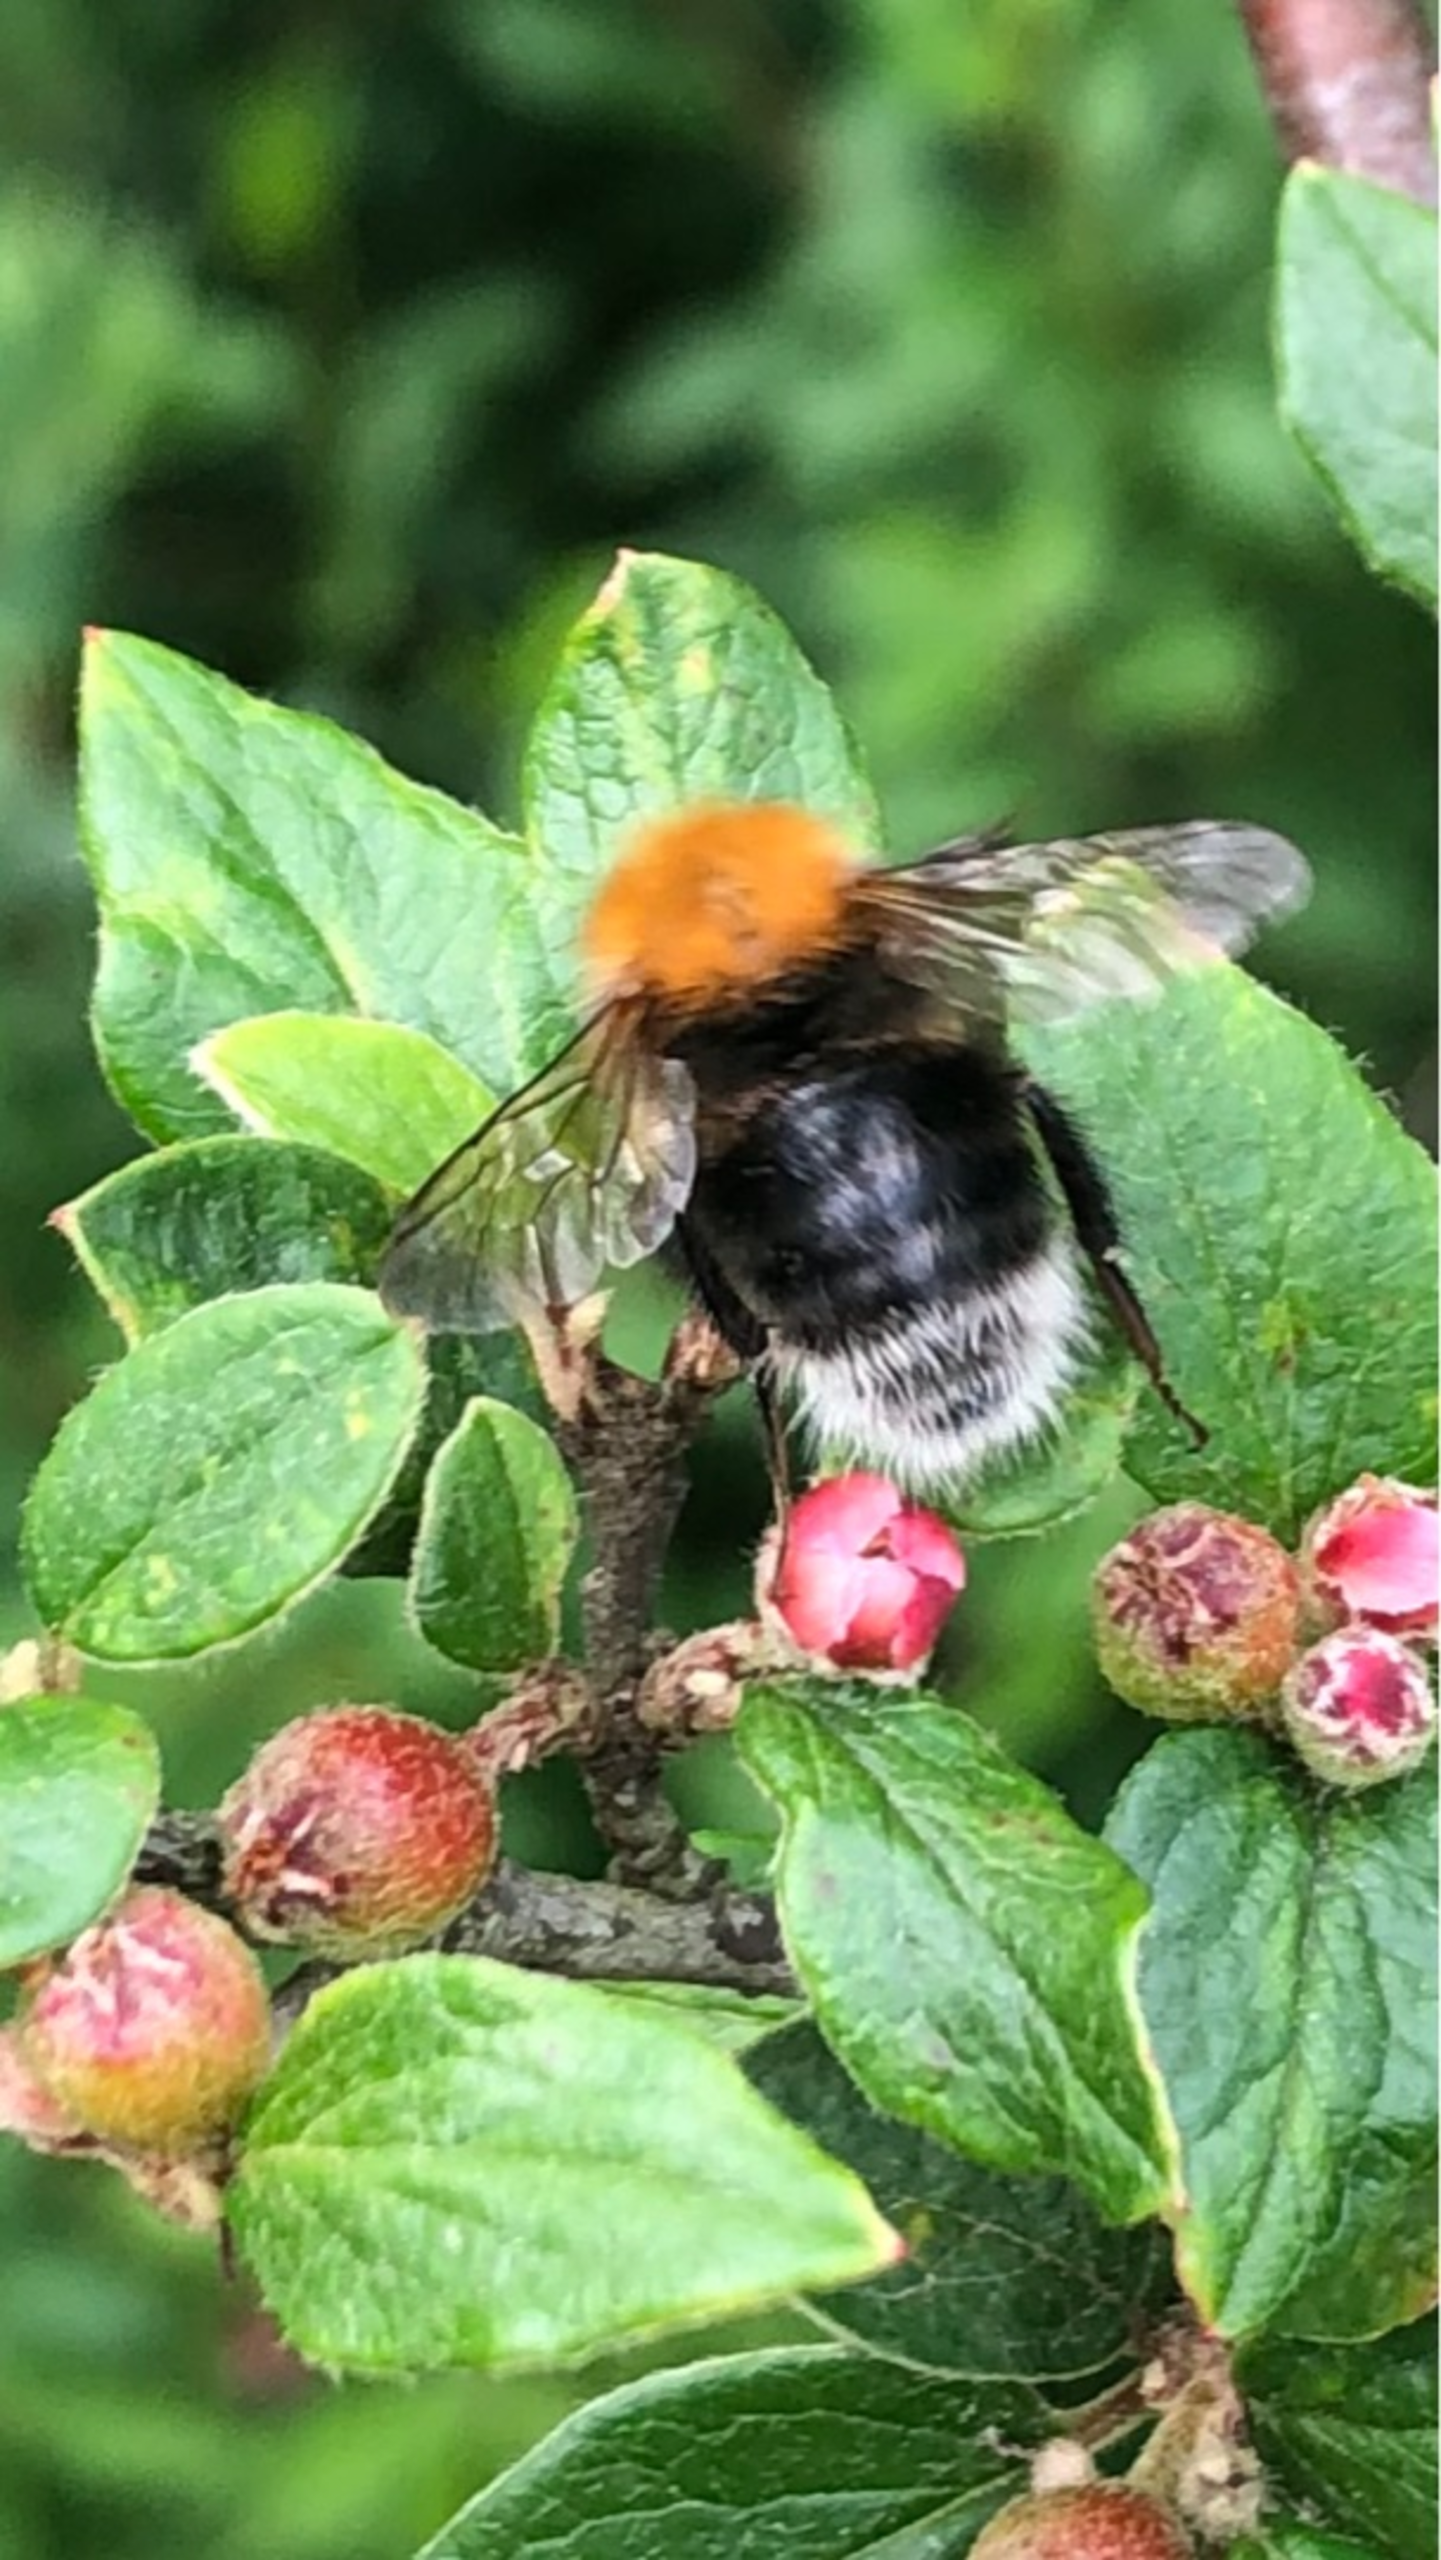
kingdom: Animalia
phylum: Arthropoda
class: Insecta
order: Hymenoptera
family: Apidae
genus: Bombus
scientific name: Bombus hypnorum
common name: Hushumle
